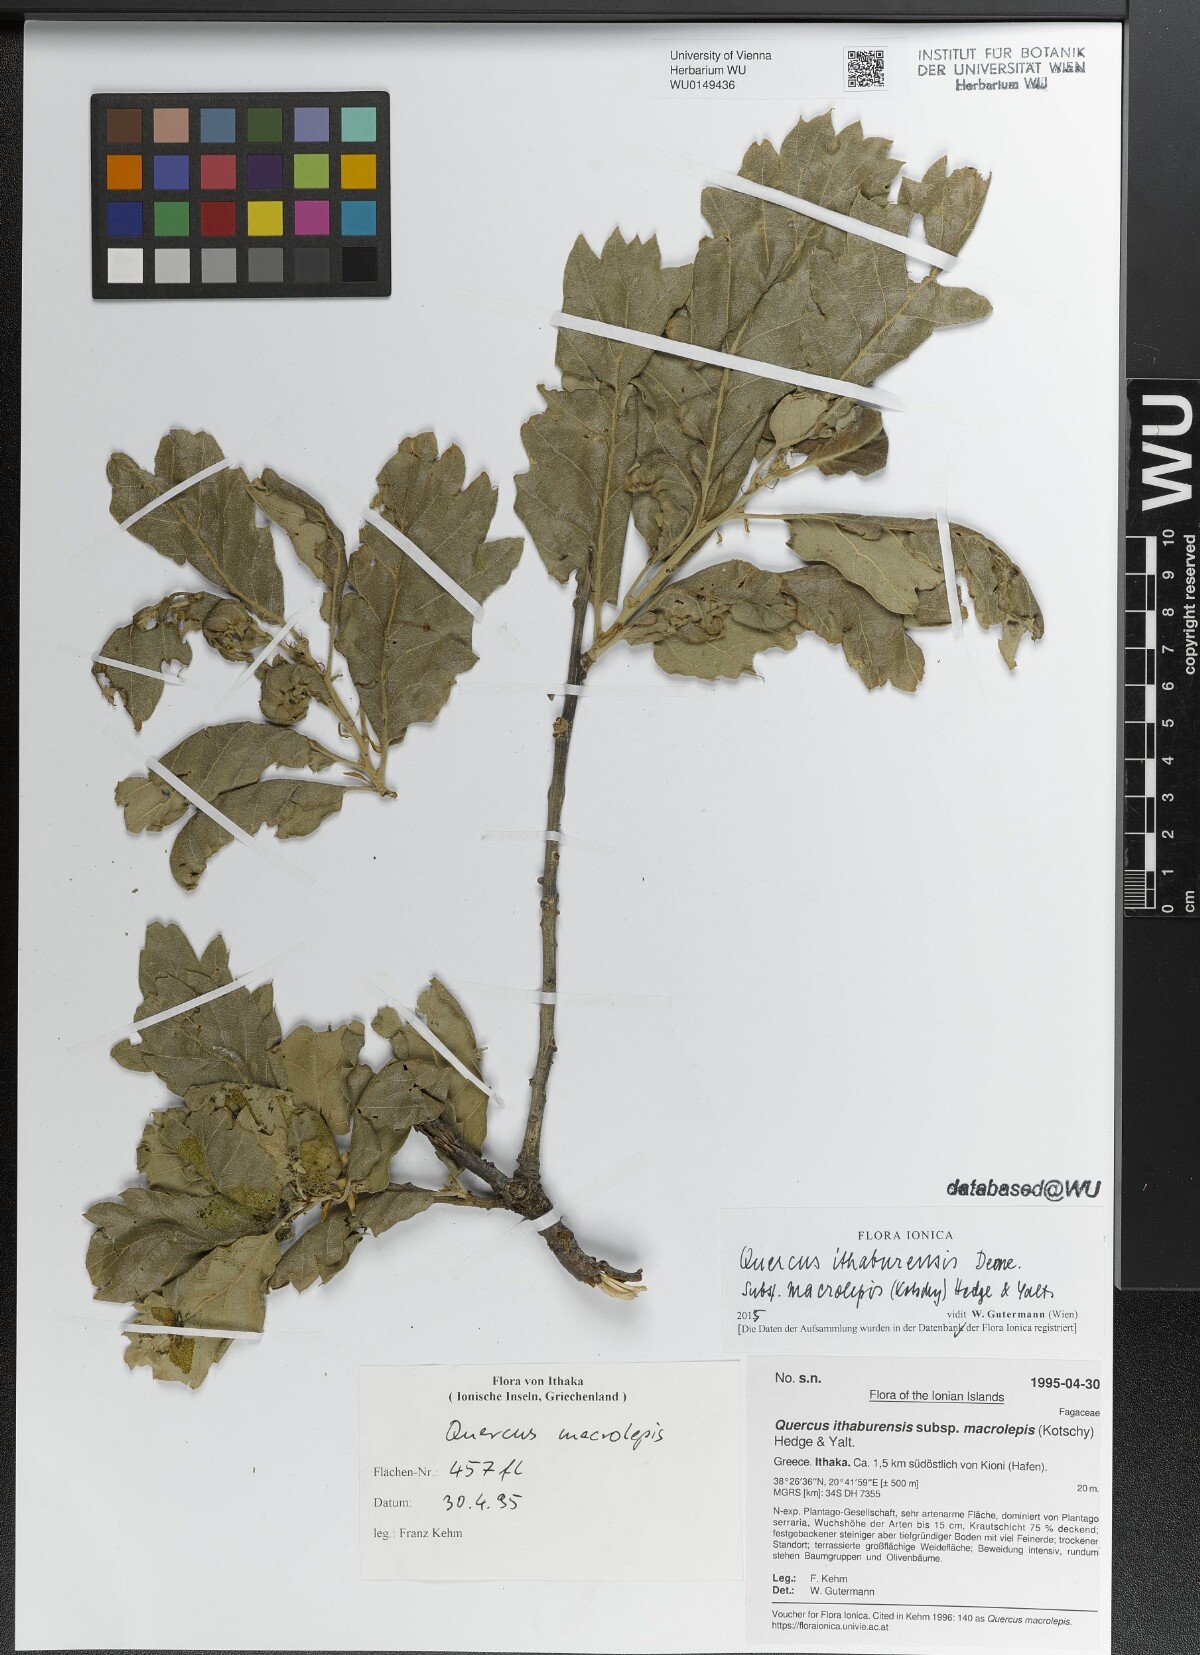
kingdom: Plantae
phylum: Tracheophyta
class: Magnoliopsida
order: Fagales
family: Fagaceae
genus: Quercus
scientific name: Quercus ithaburensis
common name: Tabor oak
